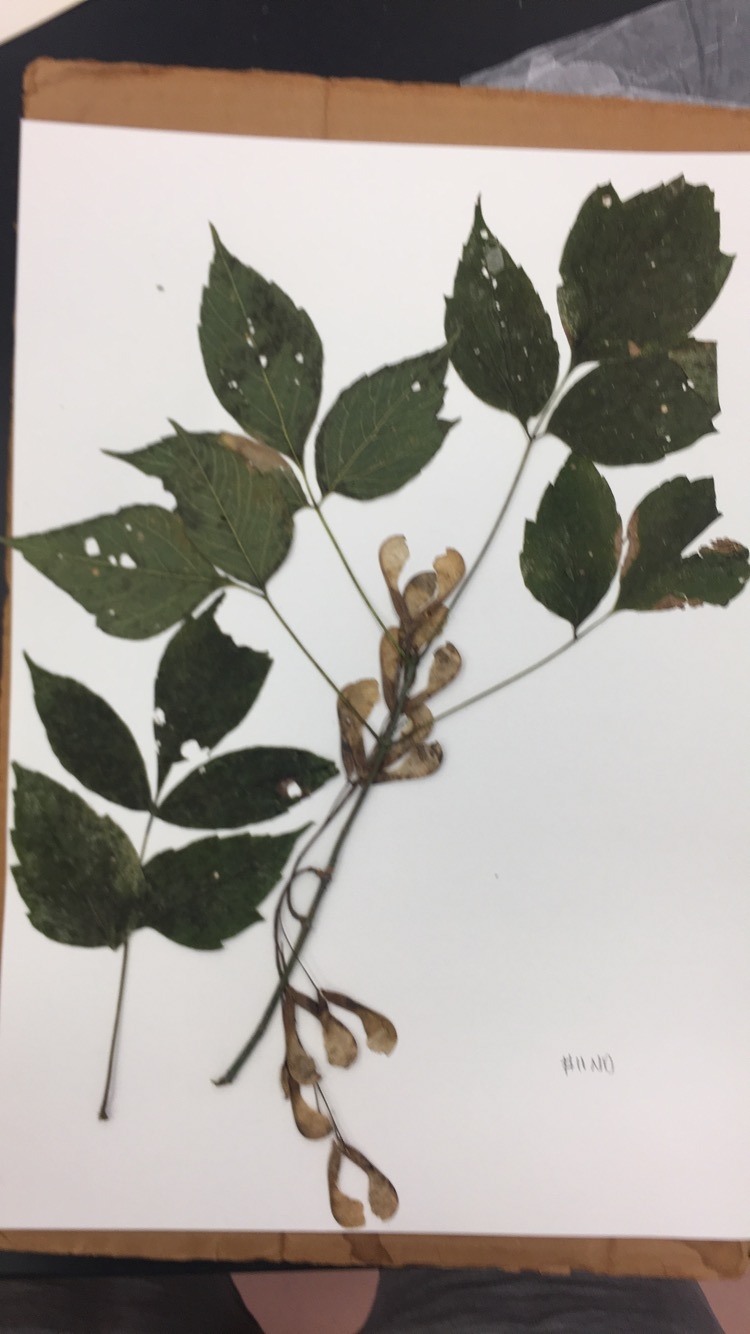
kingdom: Plantae
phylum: Tracheophyta
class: Magnoliopsida
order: Sapindales
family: Sapindaceae
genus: Acer
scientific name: Acer negundo
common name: Box elder
